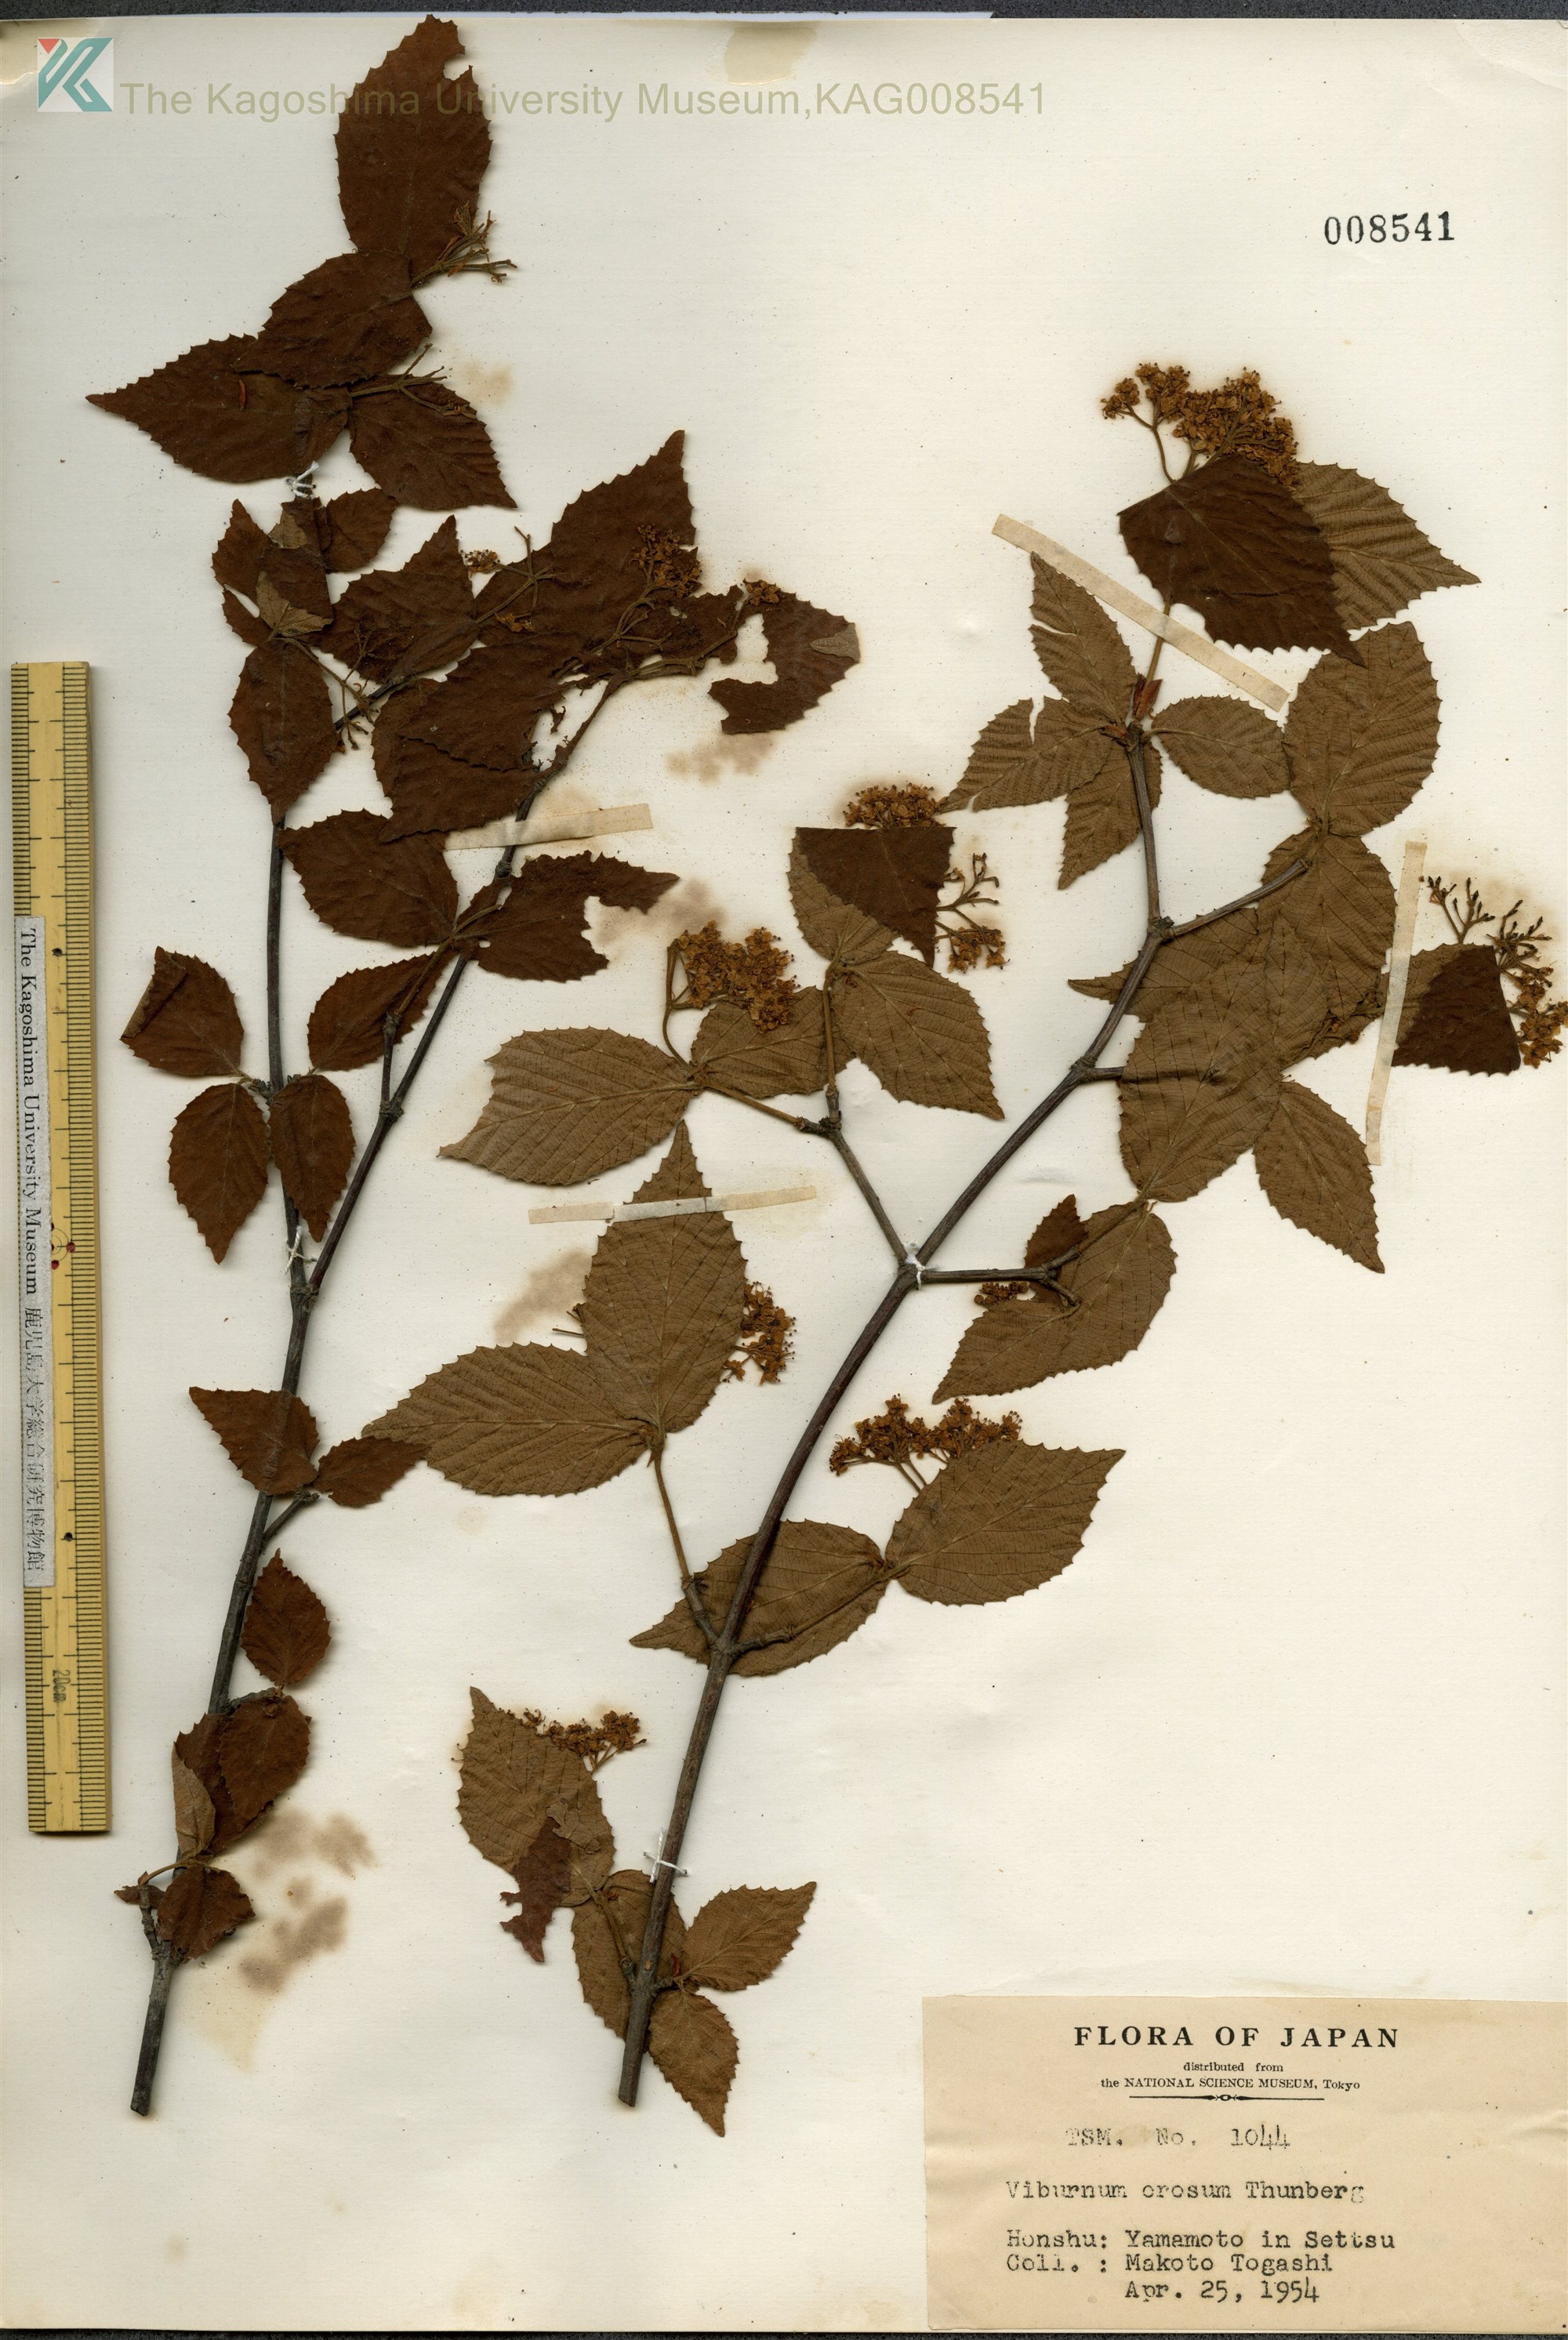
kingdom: Plantae
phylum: Tracheophyta
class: Magnoliopsida
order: Dipsacales
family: Viburnaceae
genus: Viburnum
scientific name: Viburnum erosum
